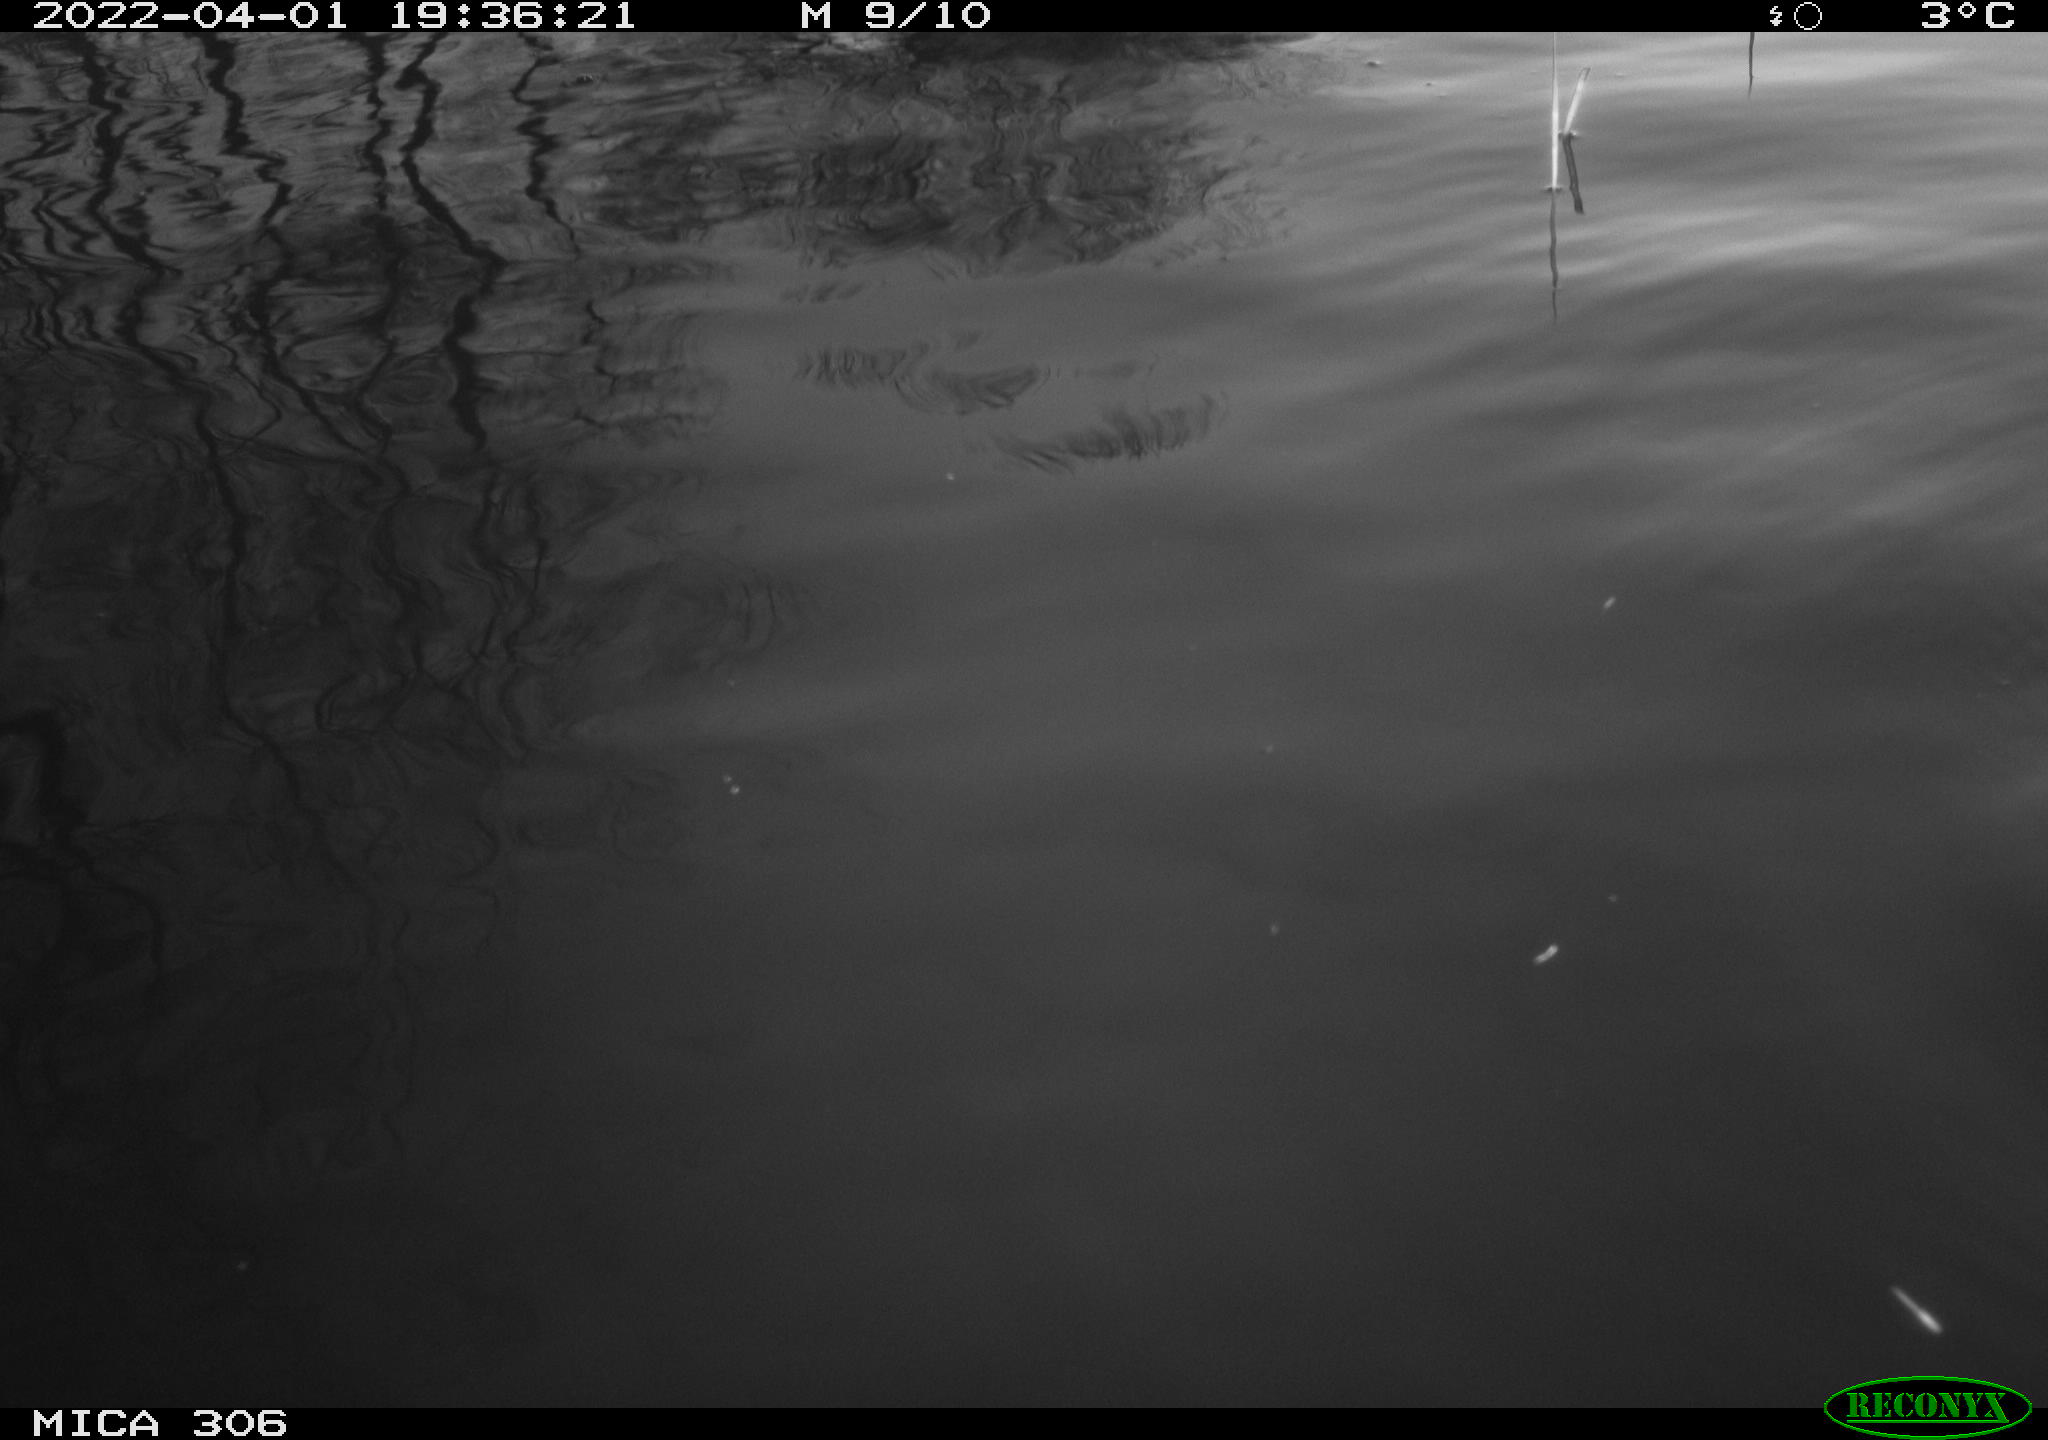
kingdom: Animalia
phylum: Chordata
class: Aves
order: Anseriformes
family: Anatidae
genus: Anas
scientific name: Anas platyrhynchos
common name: Mallard
